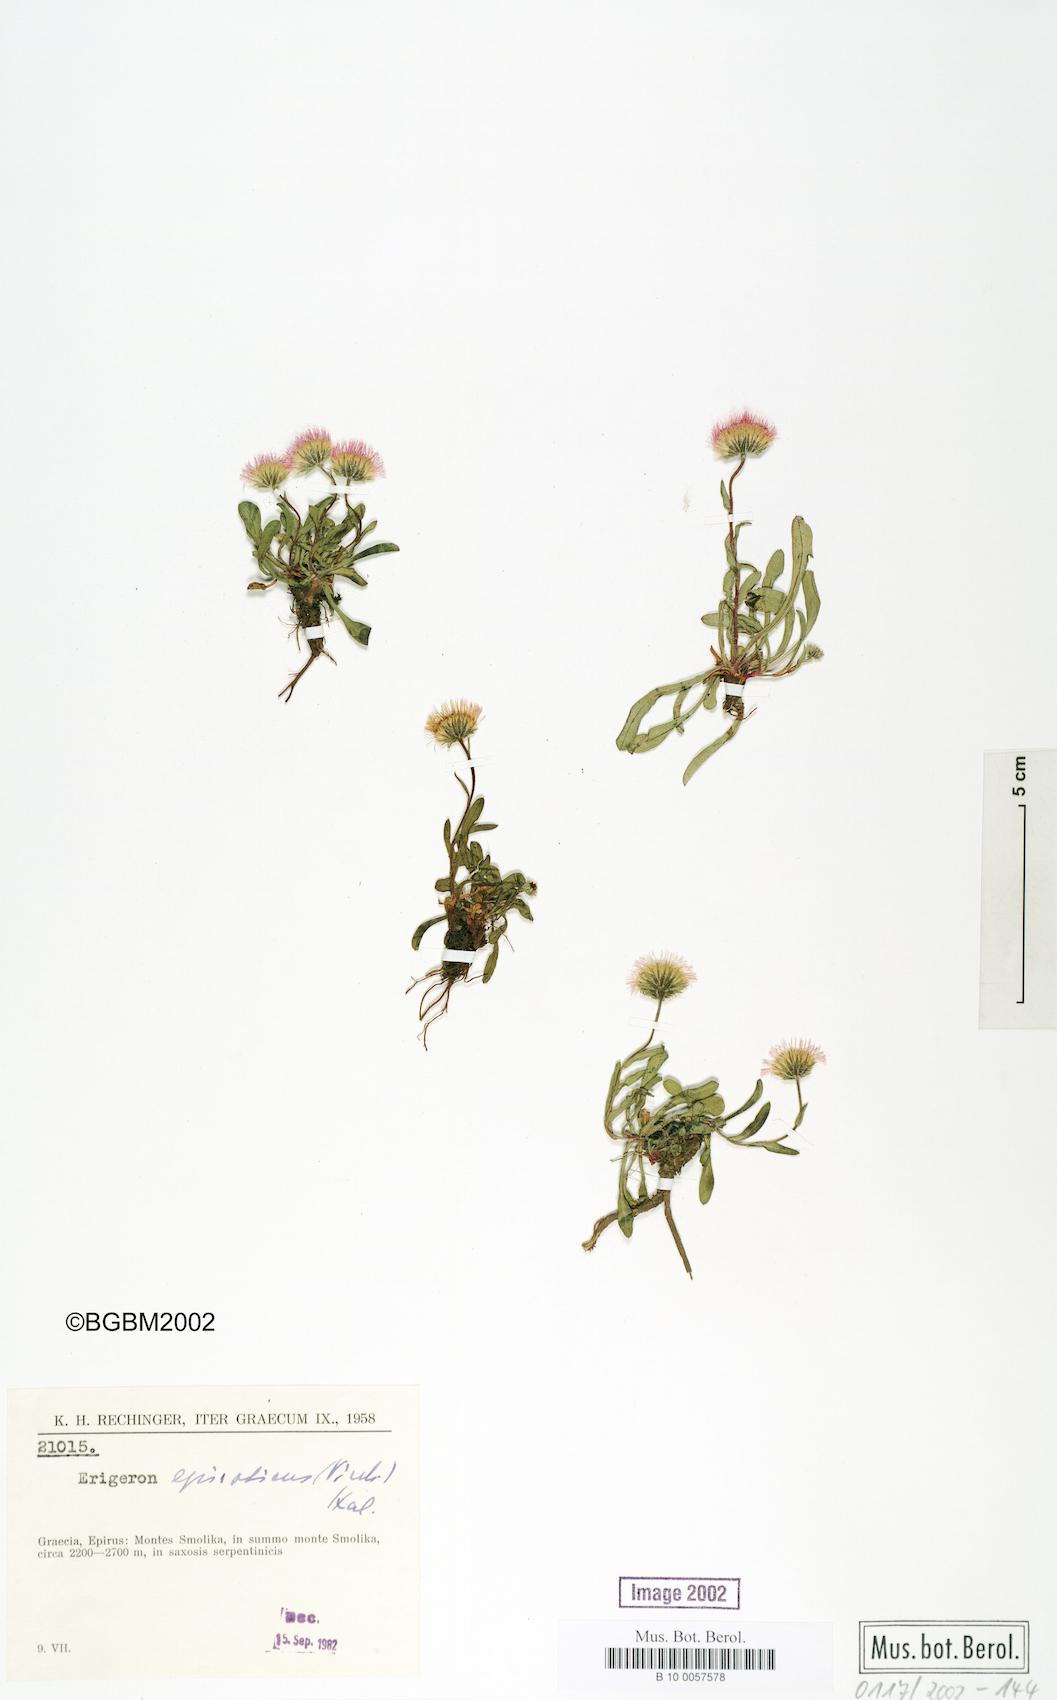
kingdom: Plantae
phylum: Tracheophyta
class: Magnoliopsida
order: Asterales
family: Asteraceae
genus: Erigeron
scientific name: Erigeron epiroticus
